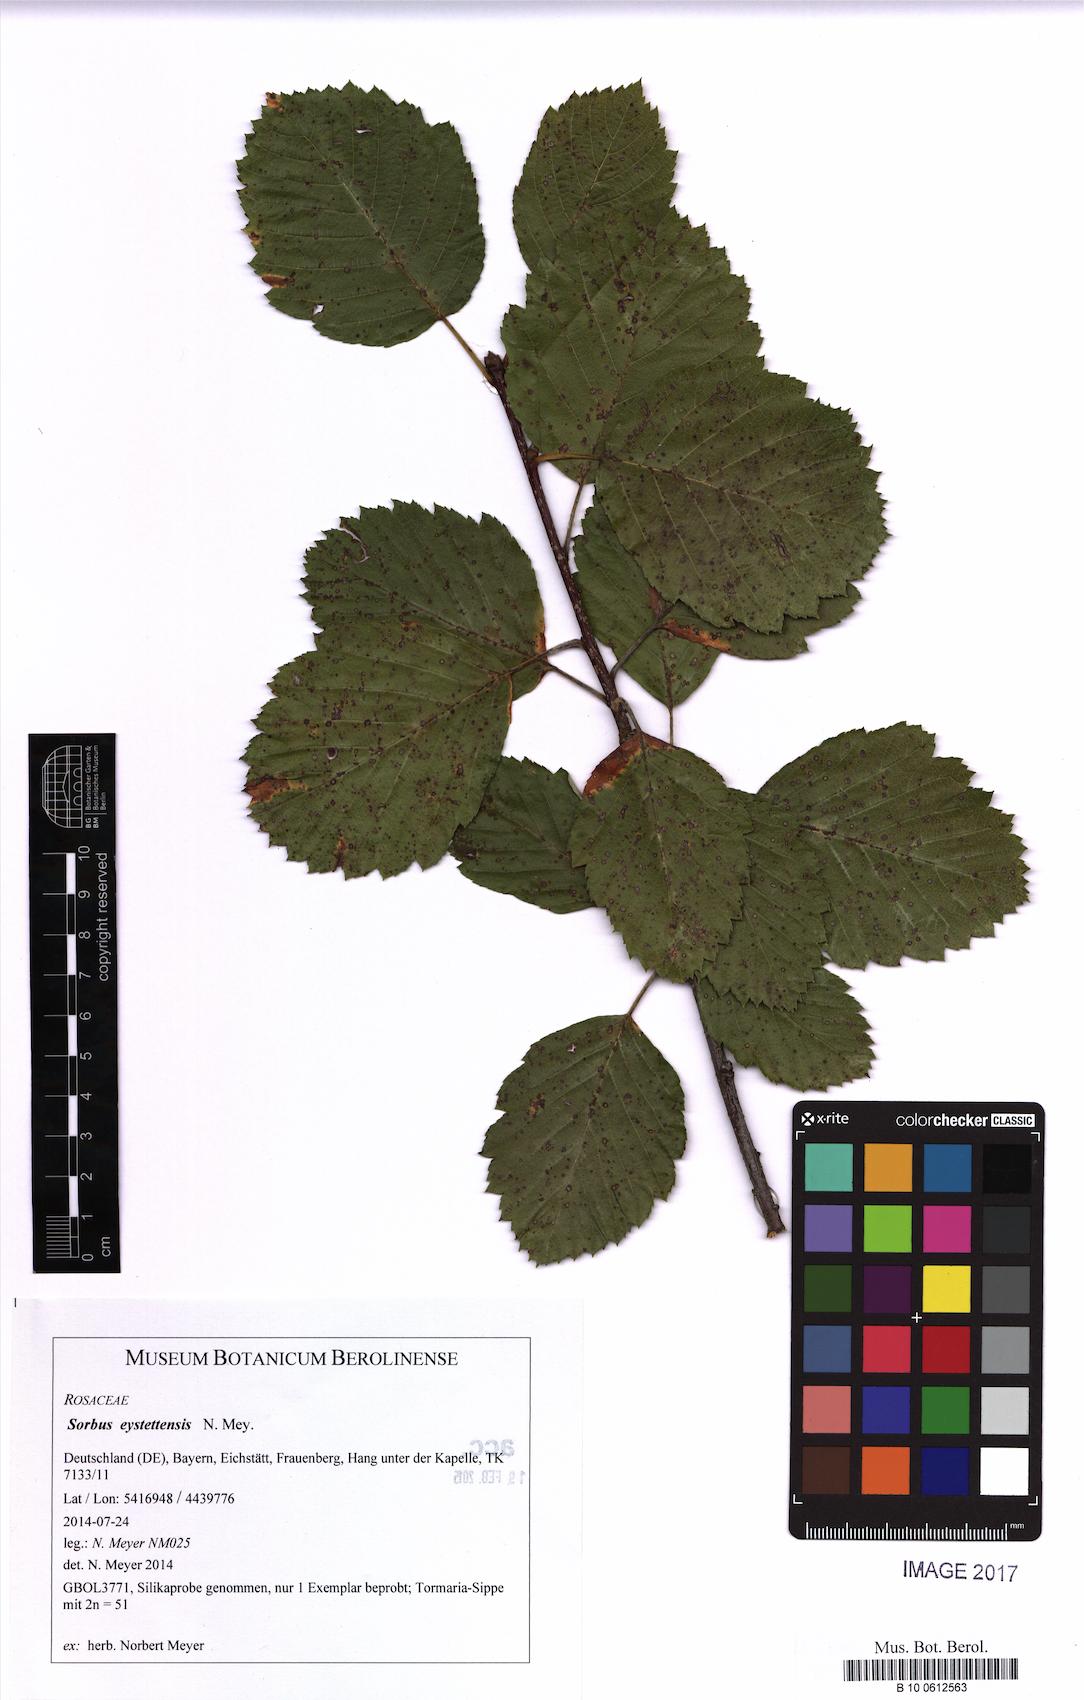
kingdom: Plantae
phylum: Tracheophyta
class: Magnoliopsida
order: Rosales
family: Rosaceae
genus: Karpatiosorbus
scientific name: Karpatiosorbus eystettensis
